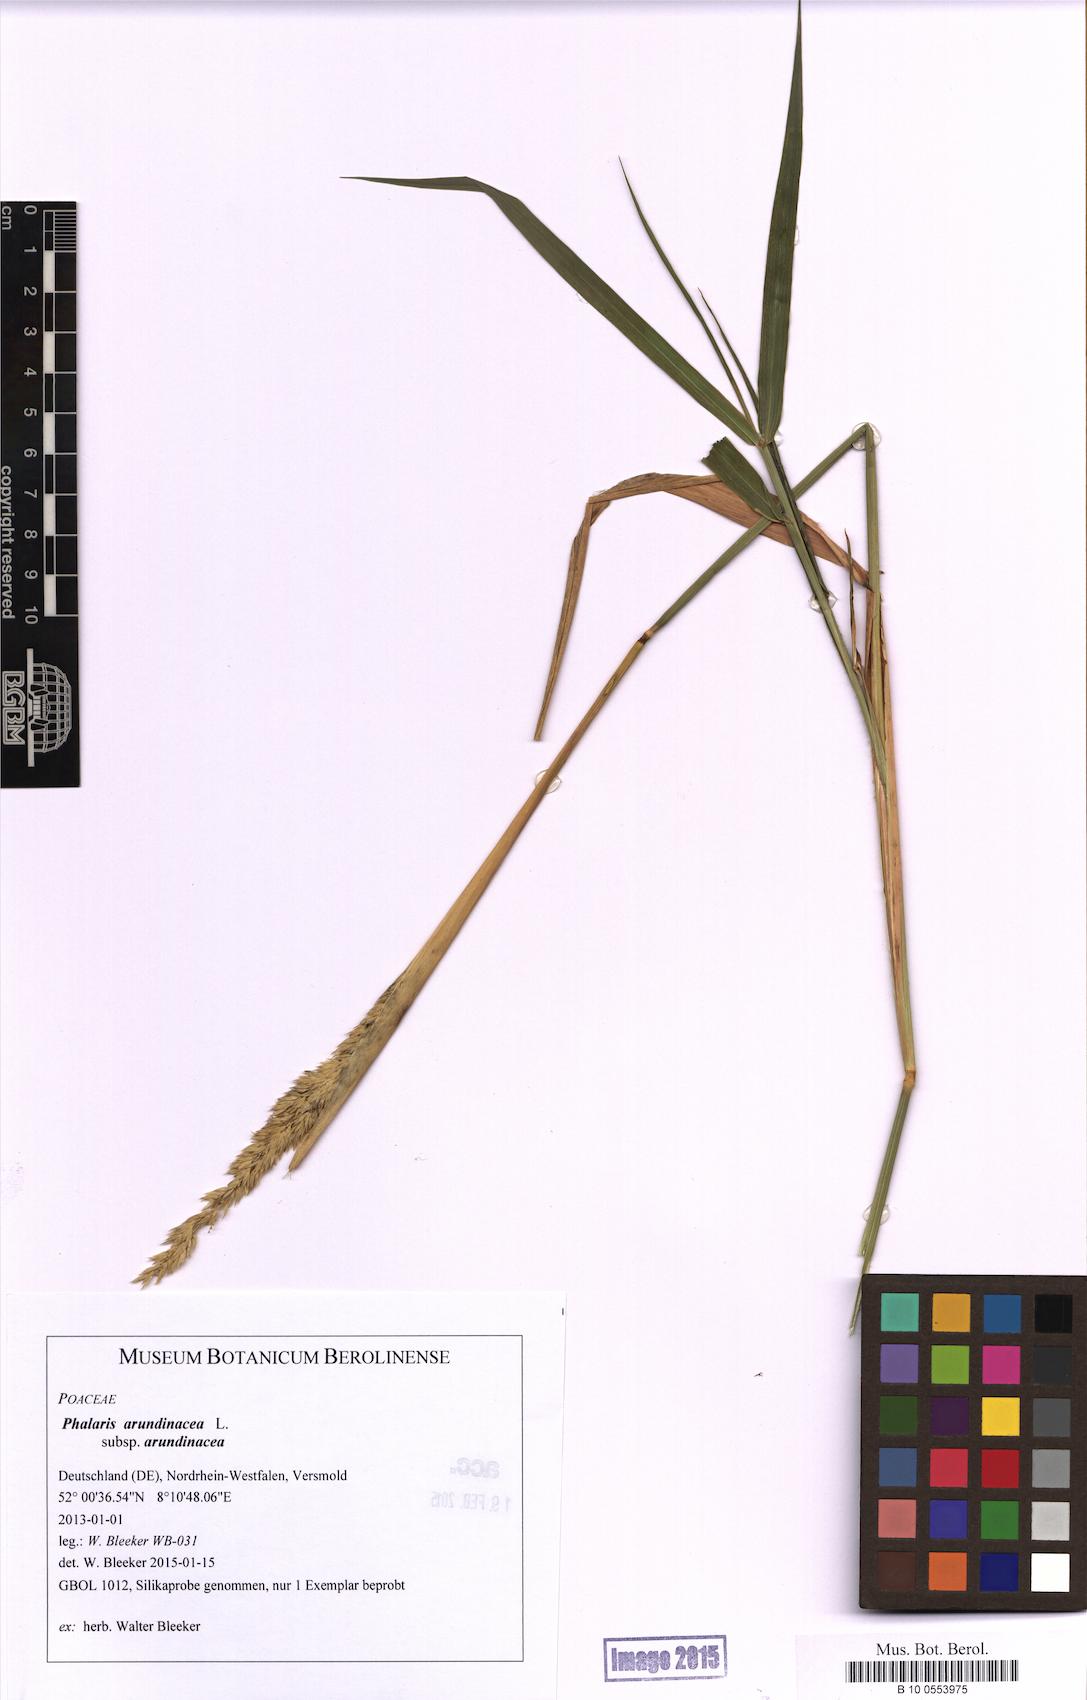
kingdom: Plantae
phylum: Tracheophyta
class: Liliopsida
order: Poales
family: Poaceae
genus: Phalaris
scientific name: Phalaris arundinacea
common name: Reed canary-grass
